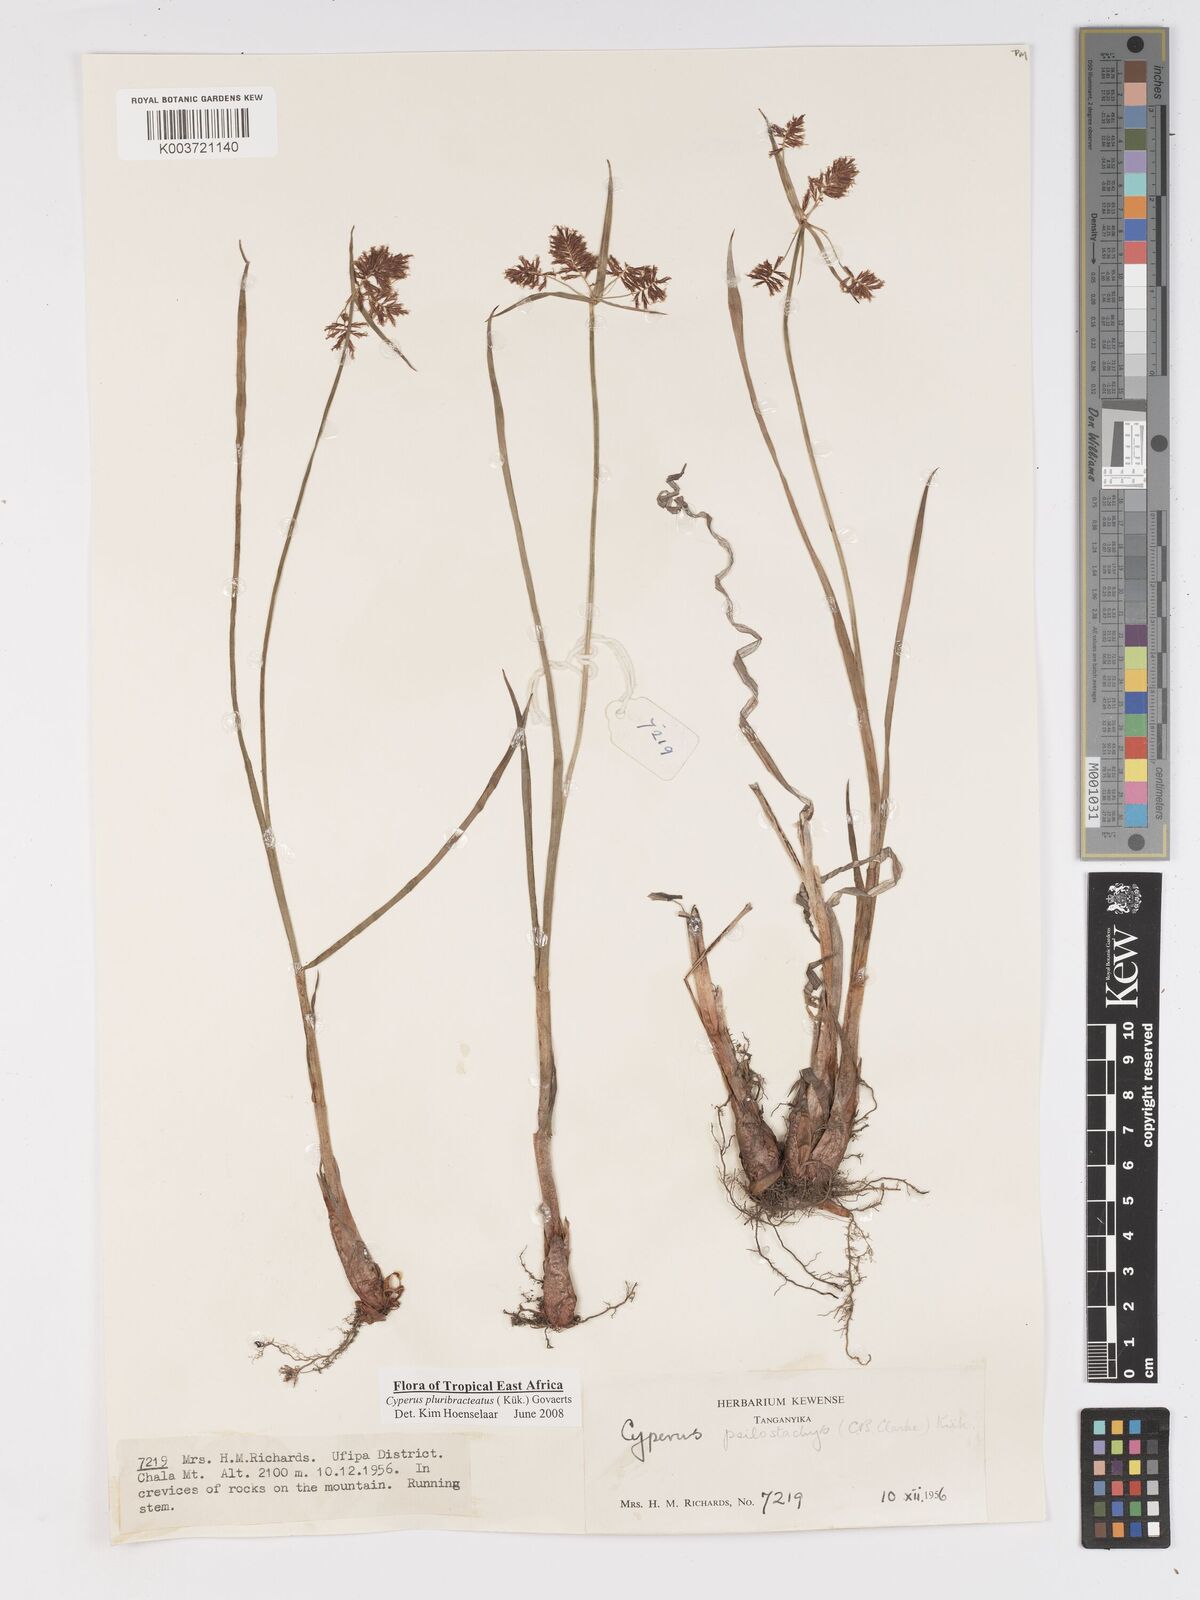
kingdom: Plantae
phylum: Tracheophyta
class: Liliopsida
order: Poales
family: Cyperaceae
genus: Cyperus
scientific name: Cyperus trigonellus
